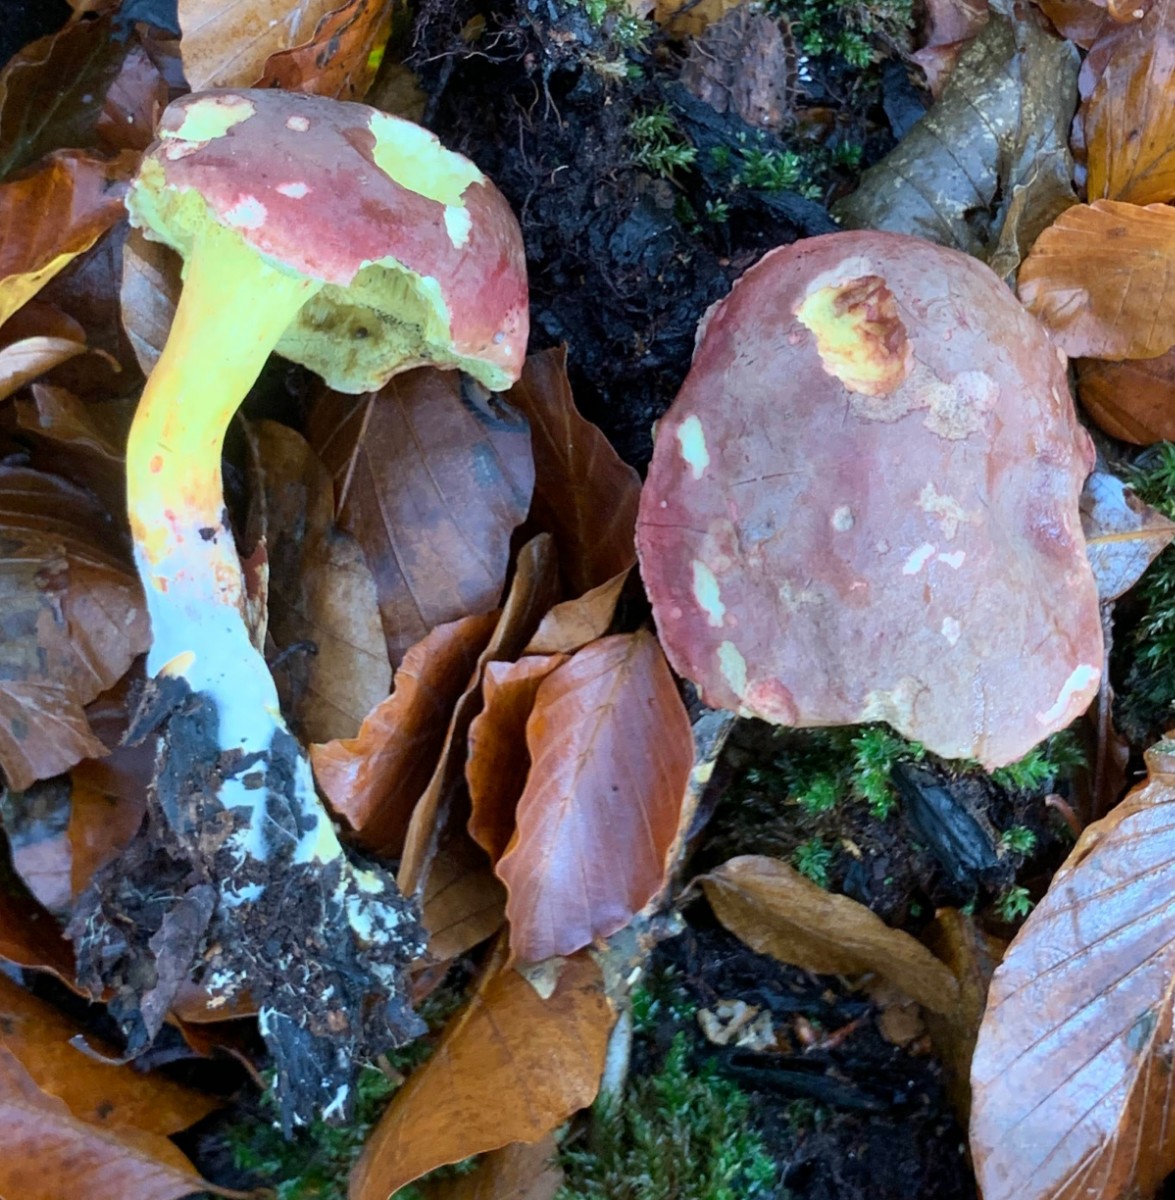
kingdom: Fungi
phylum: Basidiomycota
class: Agaricomycetes
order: Boletales
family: Boletaceae
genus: Xerocomellus
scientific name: Xerocomellus pruinatus
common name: dugget rørhat
